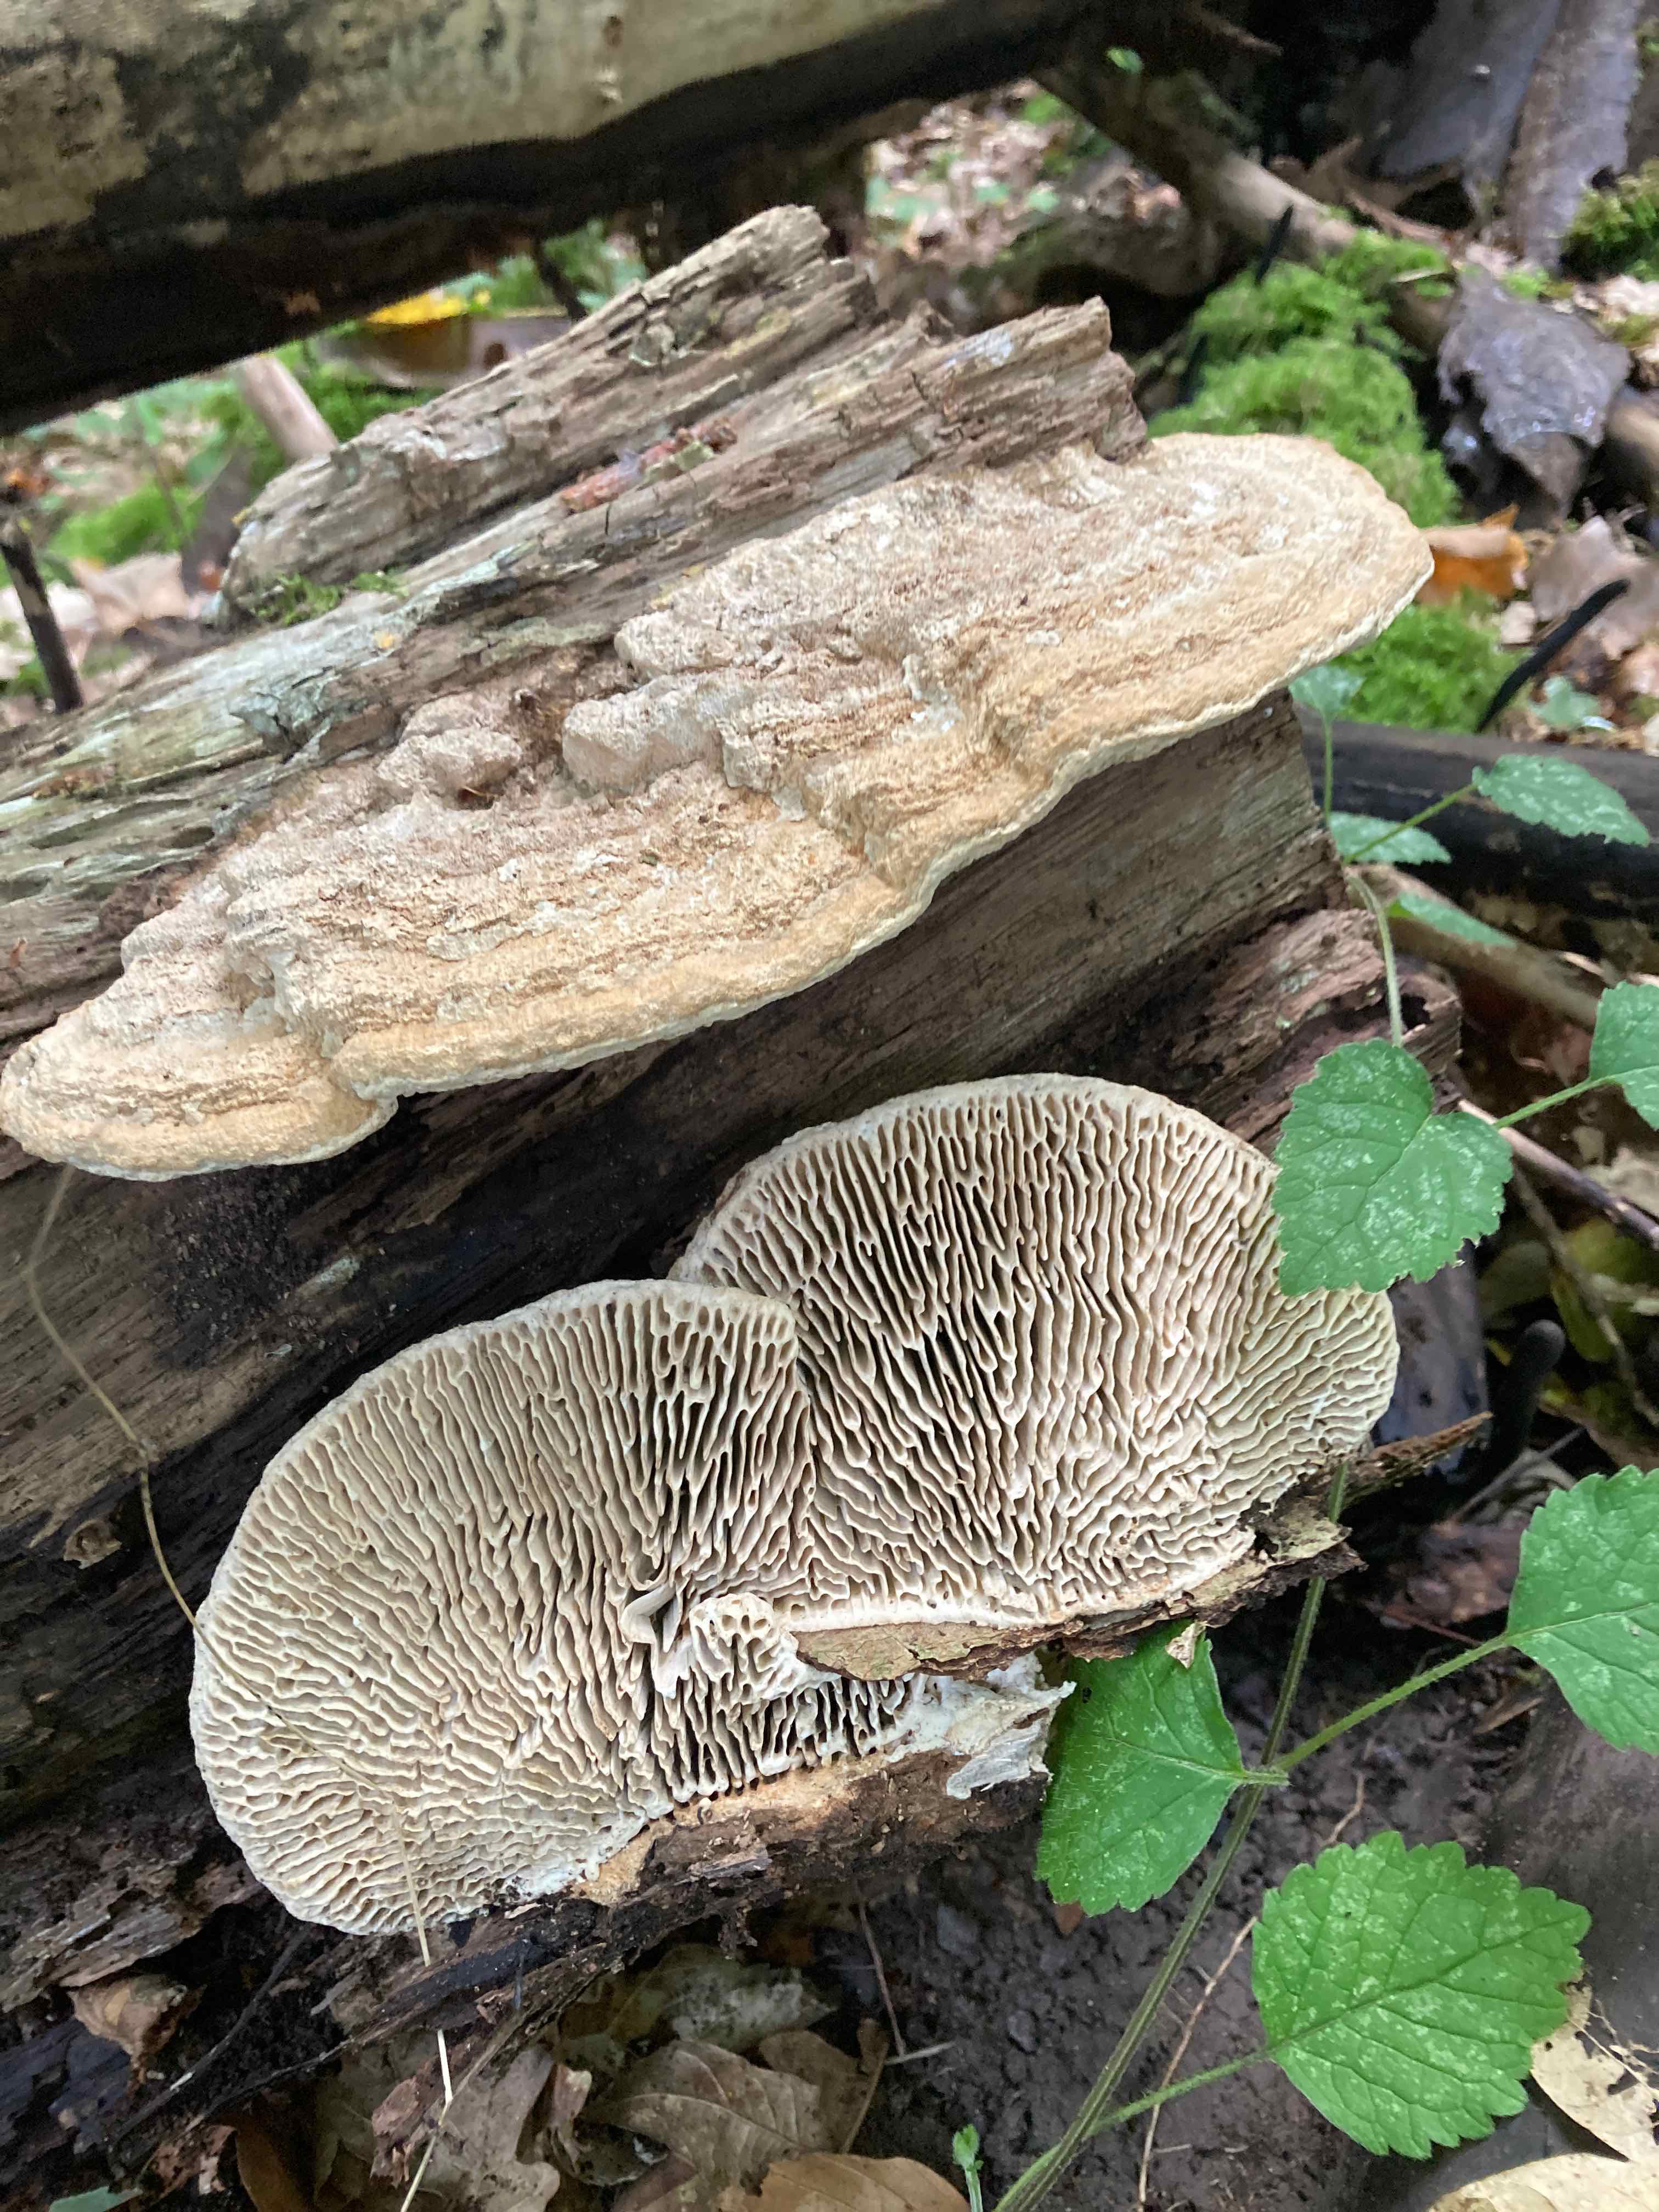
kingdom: Fungi
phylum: Basidiomycota
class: Agaricomycetes
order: Polyporales
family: Fomitopsidaceae
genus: Daedalea
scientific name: Daedalea quercina
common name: ege-labyrintsvamp
